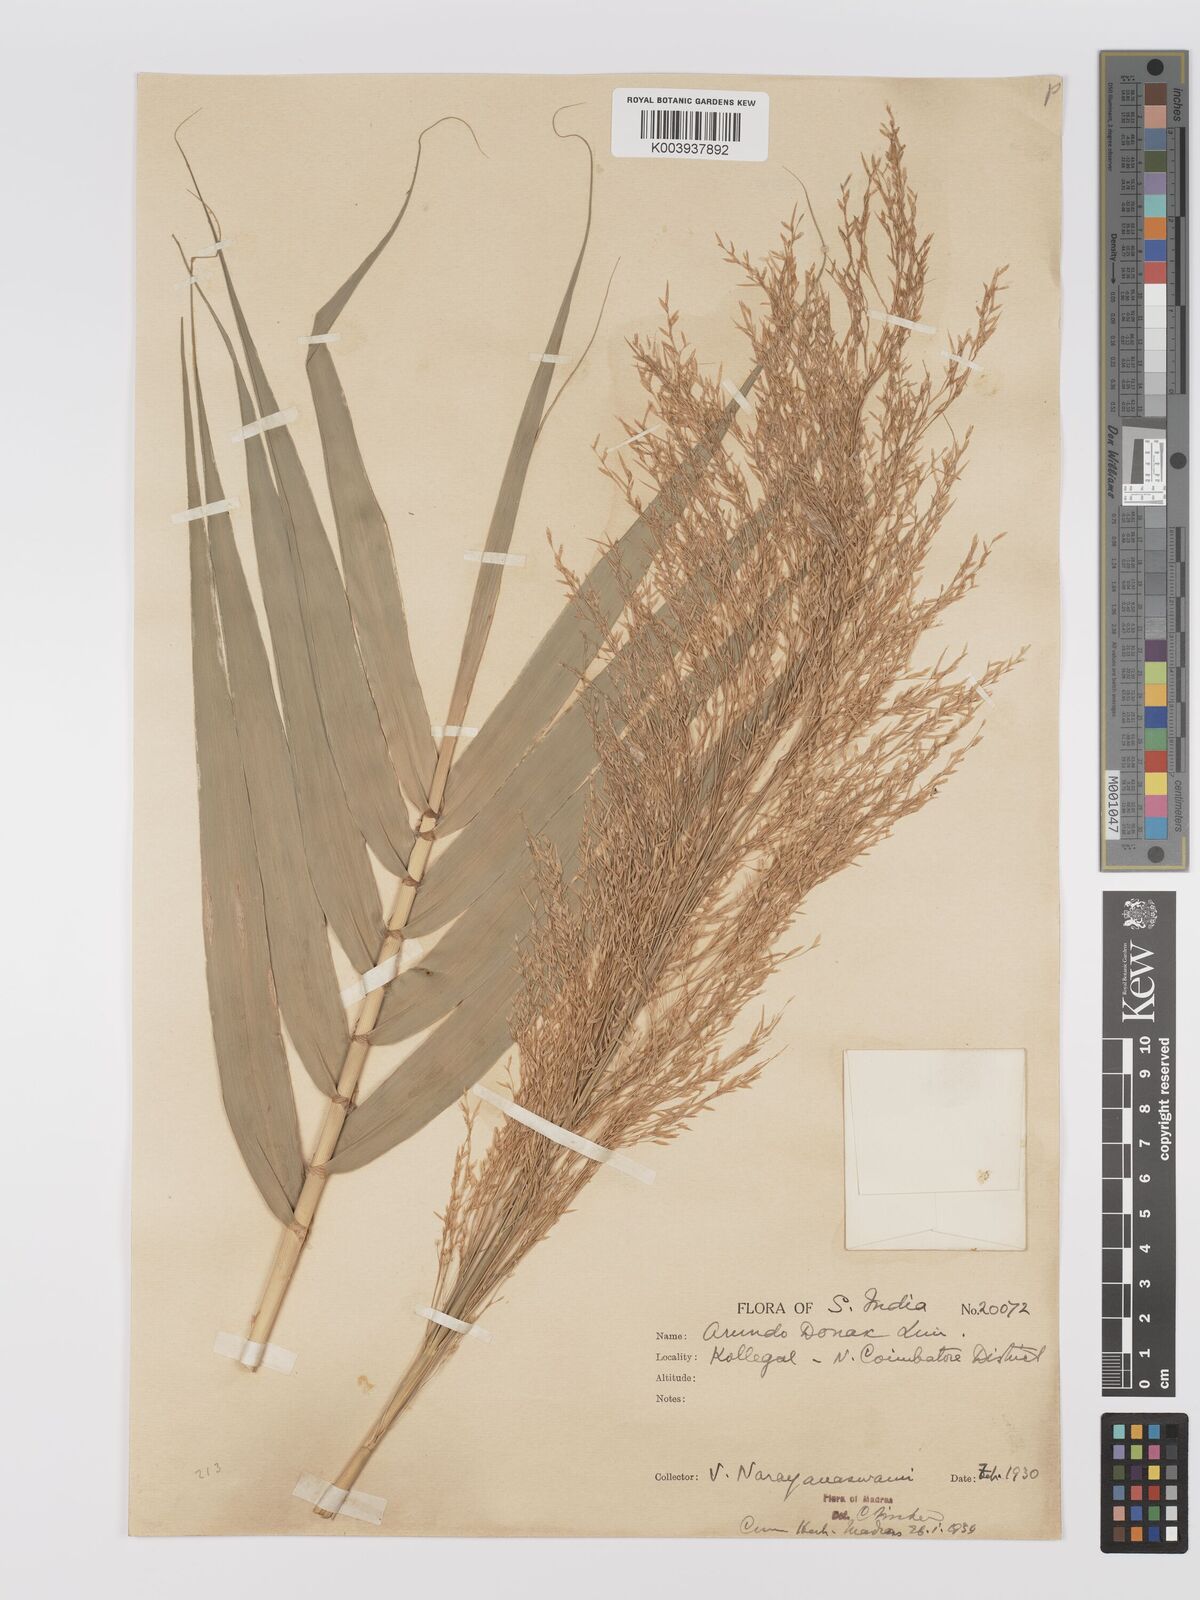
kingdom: Plantae
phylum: Tracheophyta
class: Liliopsida
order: Poales
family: Poaceae
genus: Arundo
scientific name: Arundo
